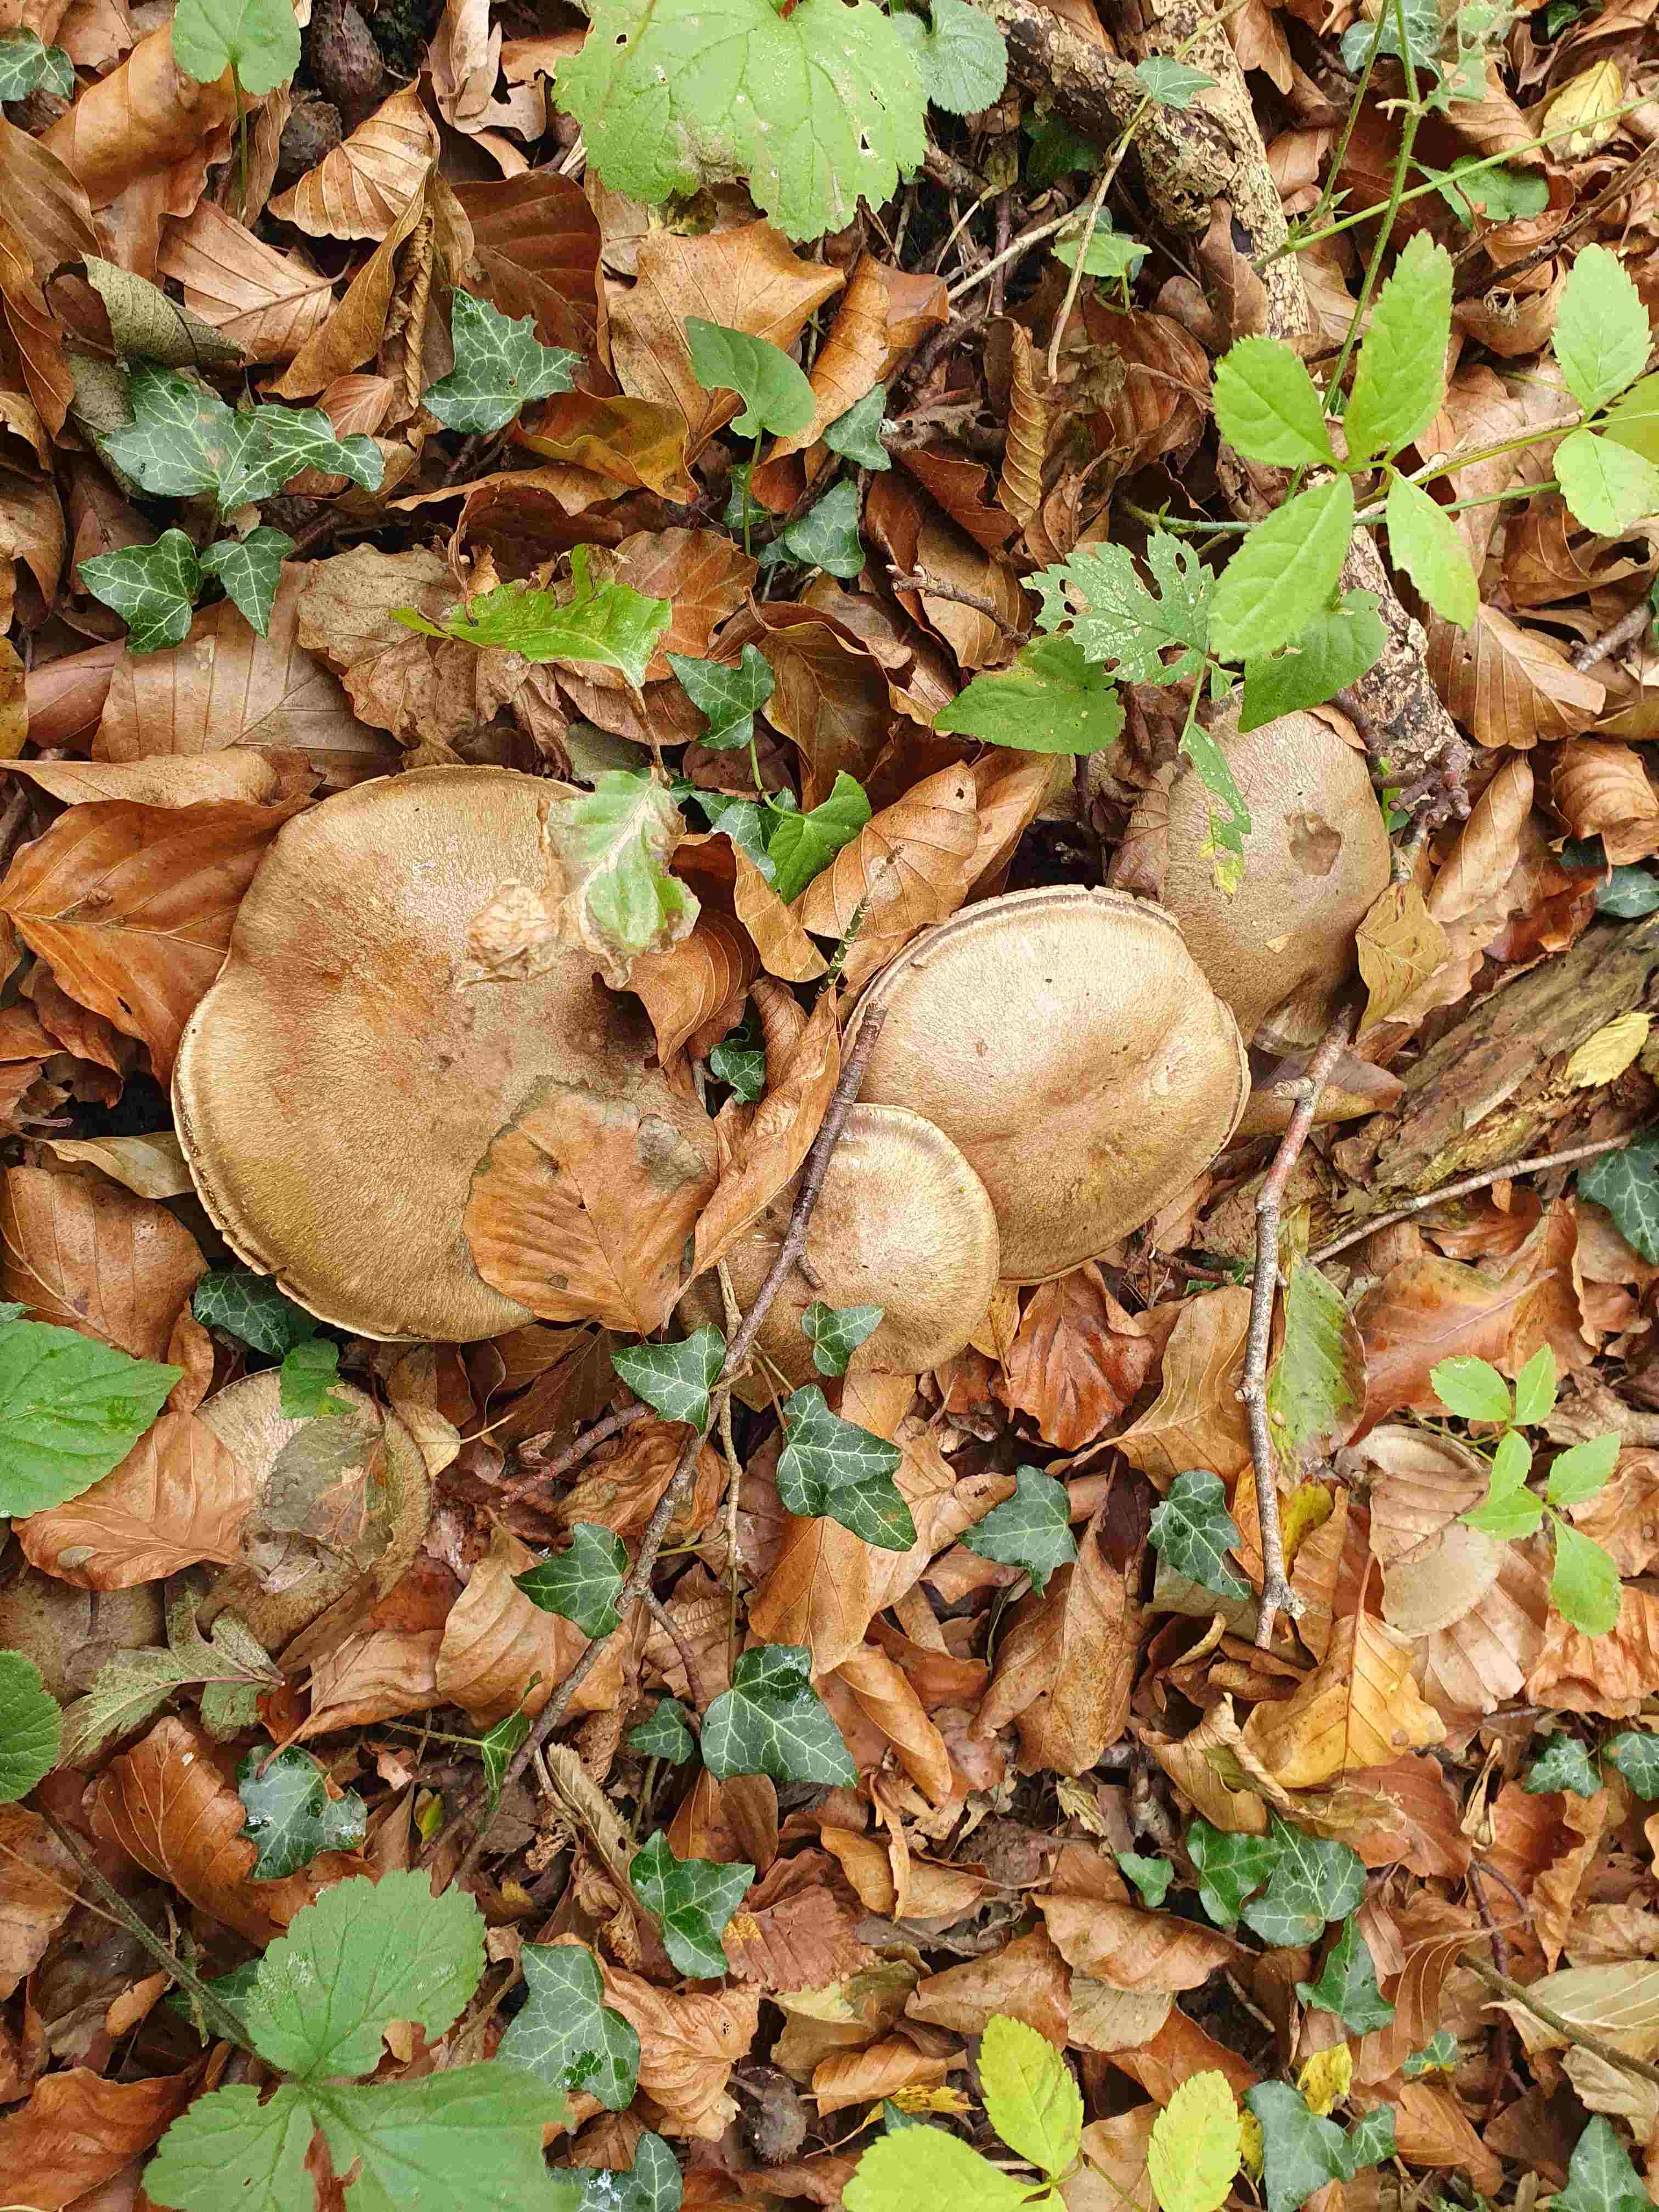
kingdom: Fungi
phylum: Basidiomycota
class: Agaricomycetes
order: Agaricales
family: Cortinariaceae
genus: Cortinarius
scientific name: Cortinarius
